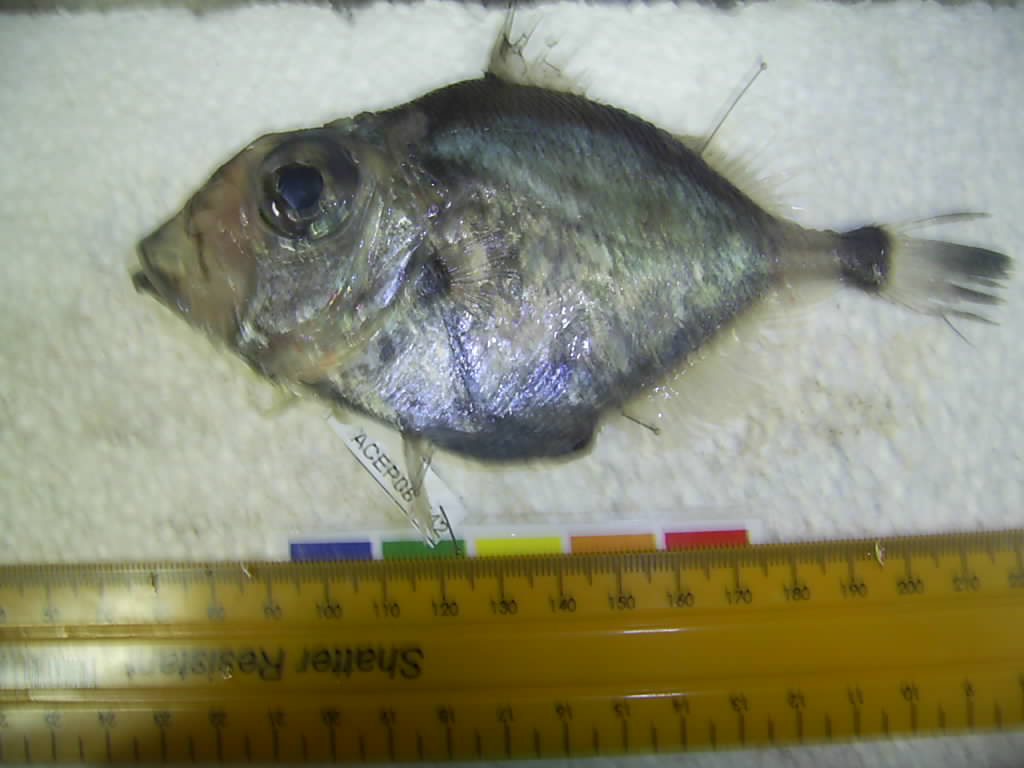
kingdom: Animalia
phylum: Chordata
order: Zeiformes
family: Oreosomatidae
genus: Allocyttus
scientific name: Allocyttus verrucosus
